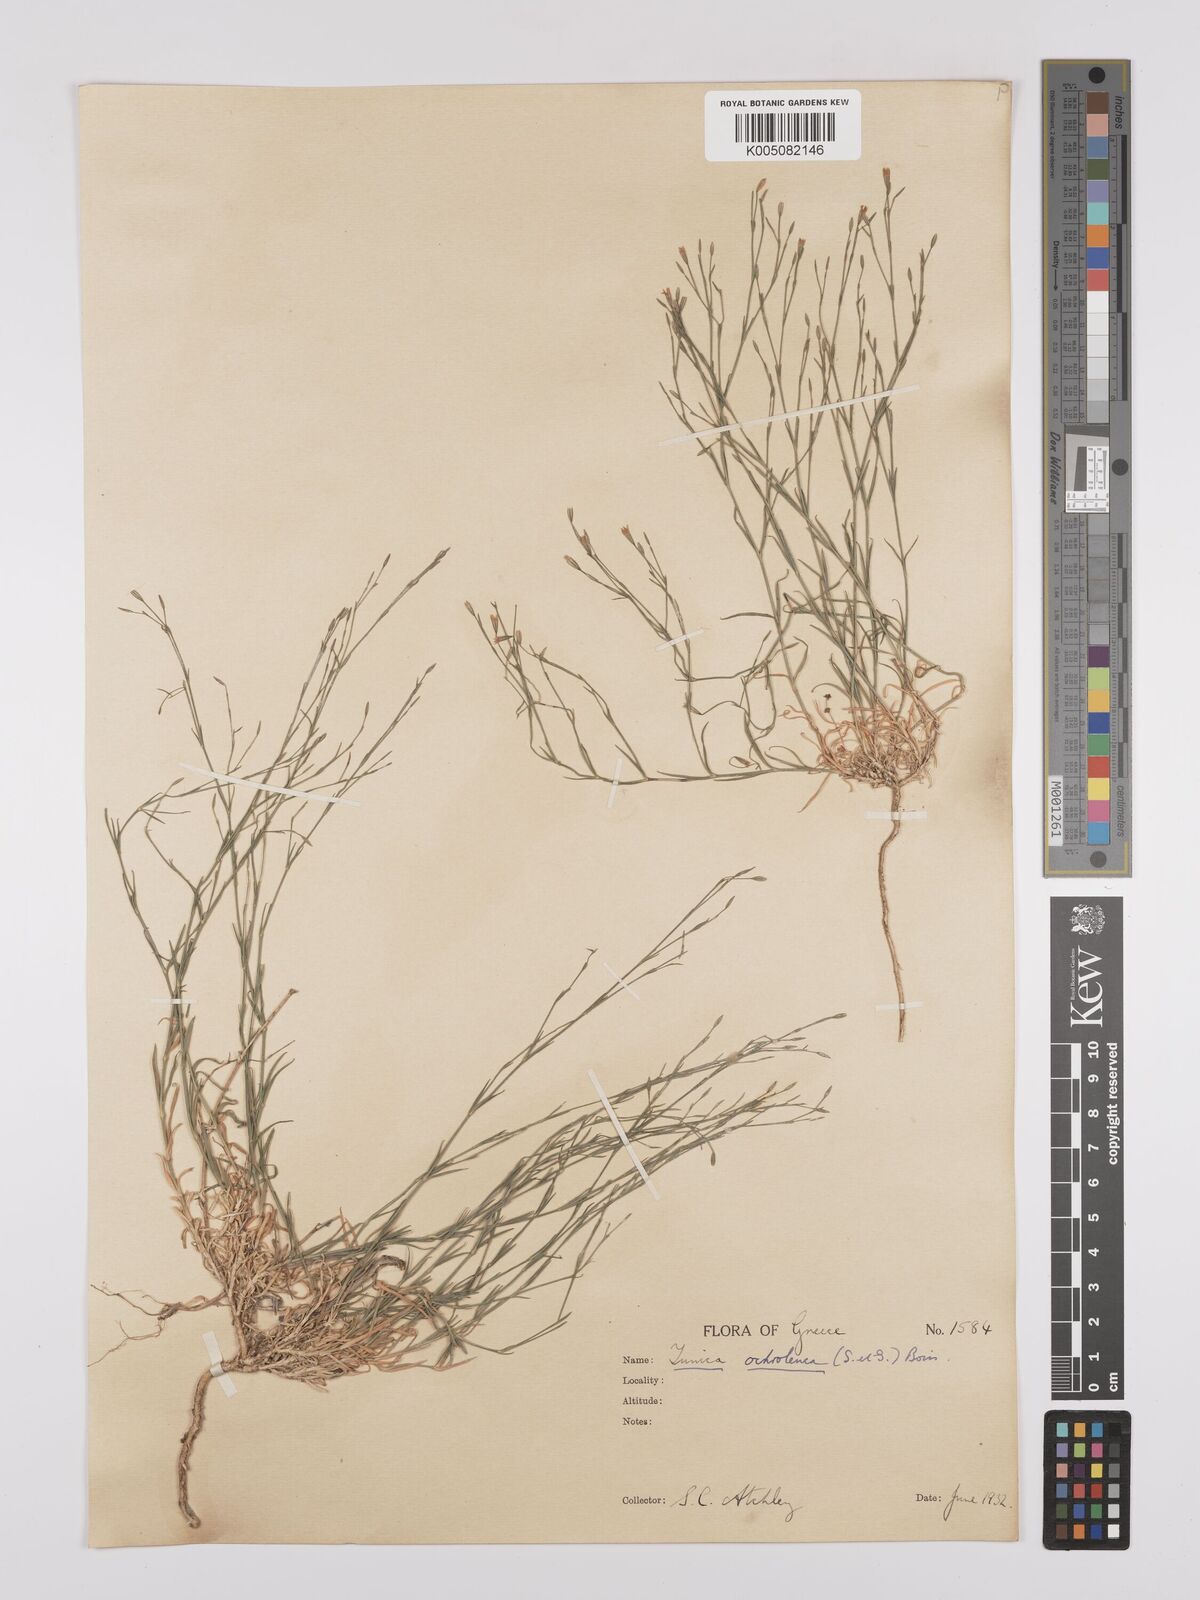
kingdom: Plantae
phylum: Tracheophyta
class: Magnoliopsida
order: Caryophyllales
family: Caryophyllaceae
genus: Petrorhagia
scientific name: Petrorhagia ochroleuca
